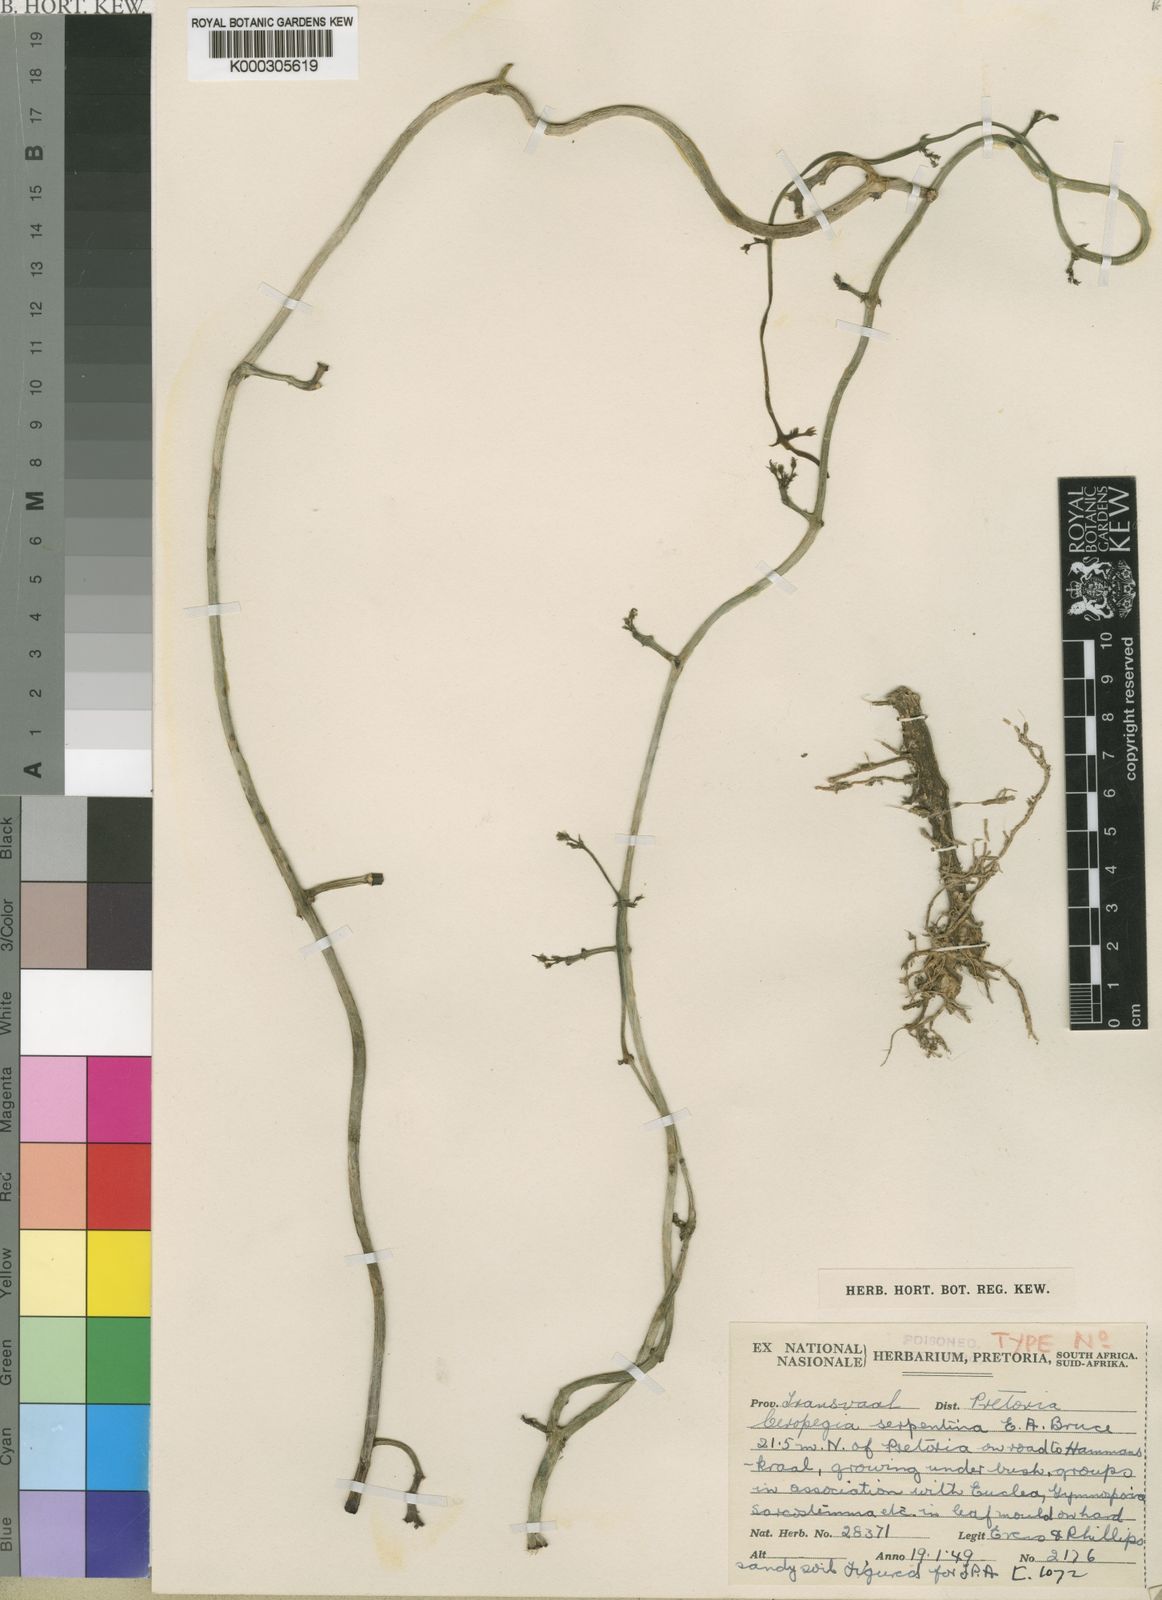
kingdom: Plantae
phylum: Tracheophyta
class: Magnoliopsida
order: Gentianales
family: Apocynaceae
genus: Ceropegia
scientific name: Ceropegia stapeliiformis
